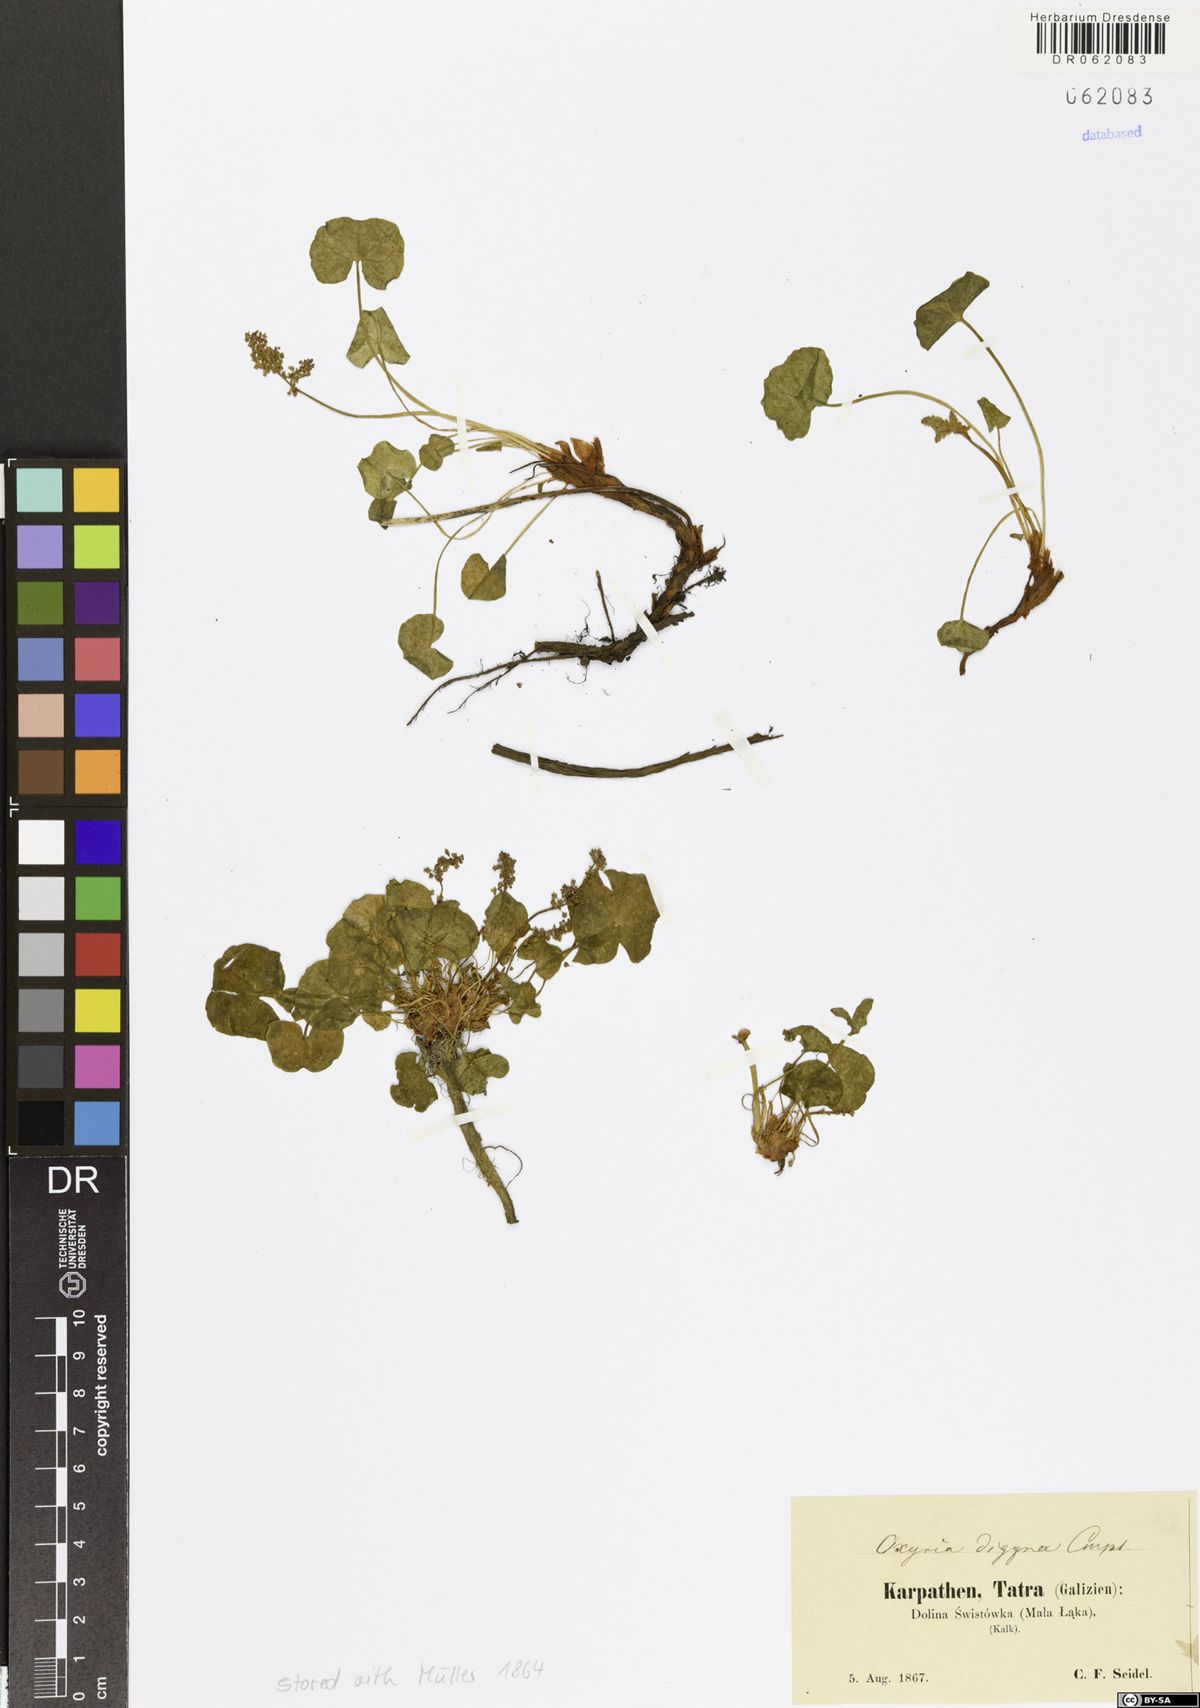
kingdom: Plantae
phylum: Tracheophyta
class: Magnoliopsida
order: Caryophyllales
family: Polygonaceae
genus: Oxyria
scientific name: Oxyria digyna
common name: Alpine mountain-sorrel
